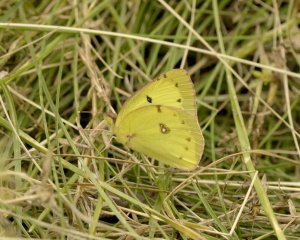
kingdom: Animalia
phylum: Arthropoda
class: Insecta
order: Lepidoptera
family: Pieridae
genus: Colias
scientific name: Colias philodice
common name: Clouded Sulphur
